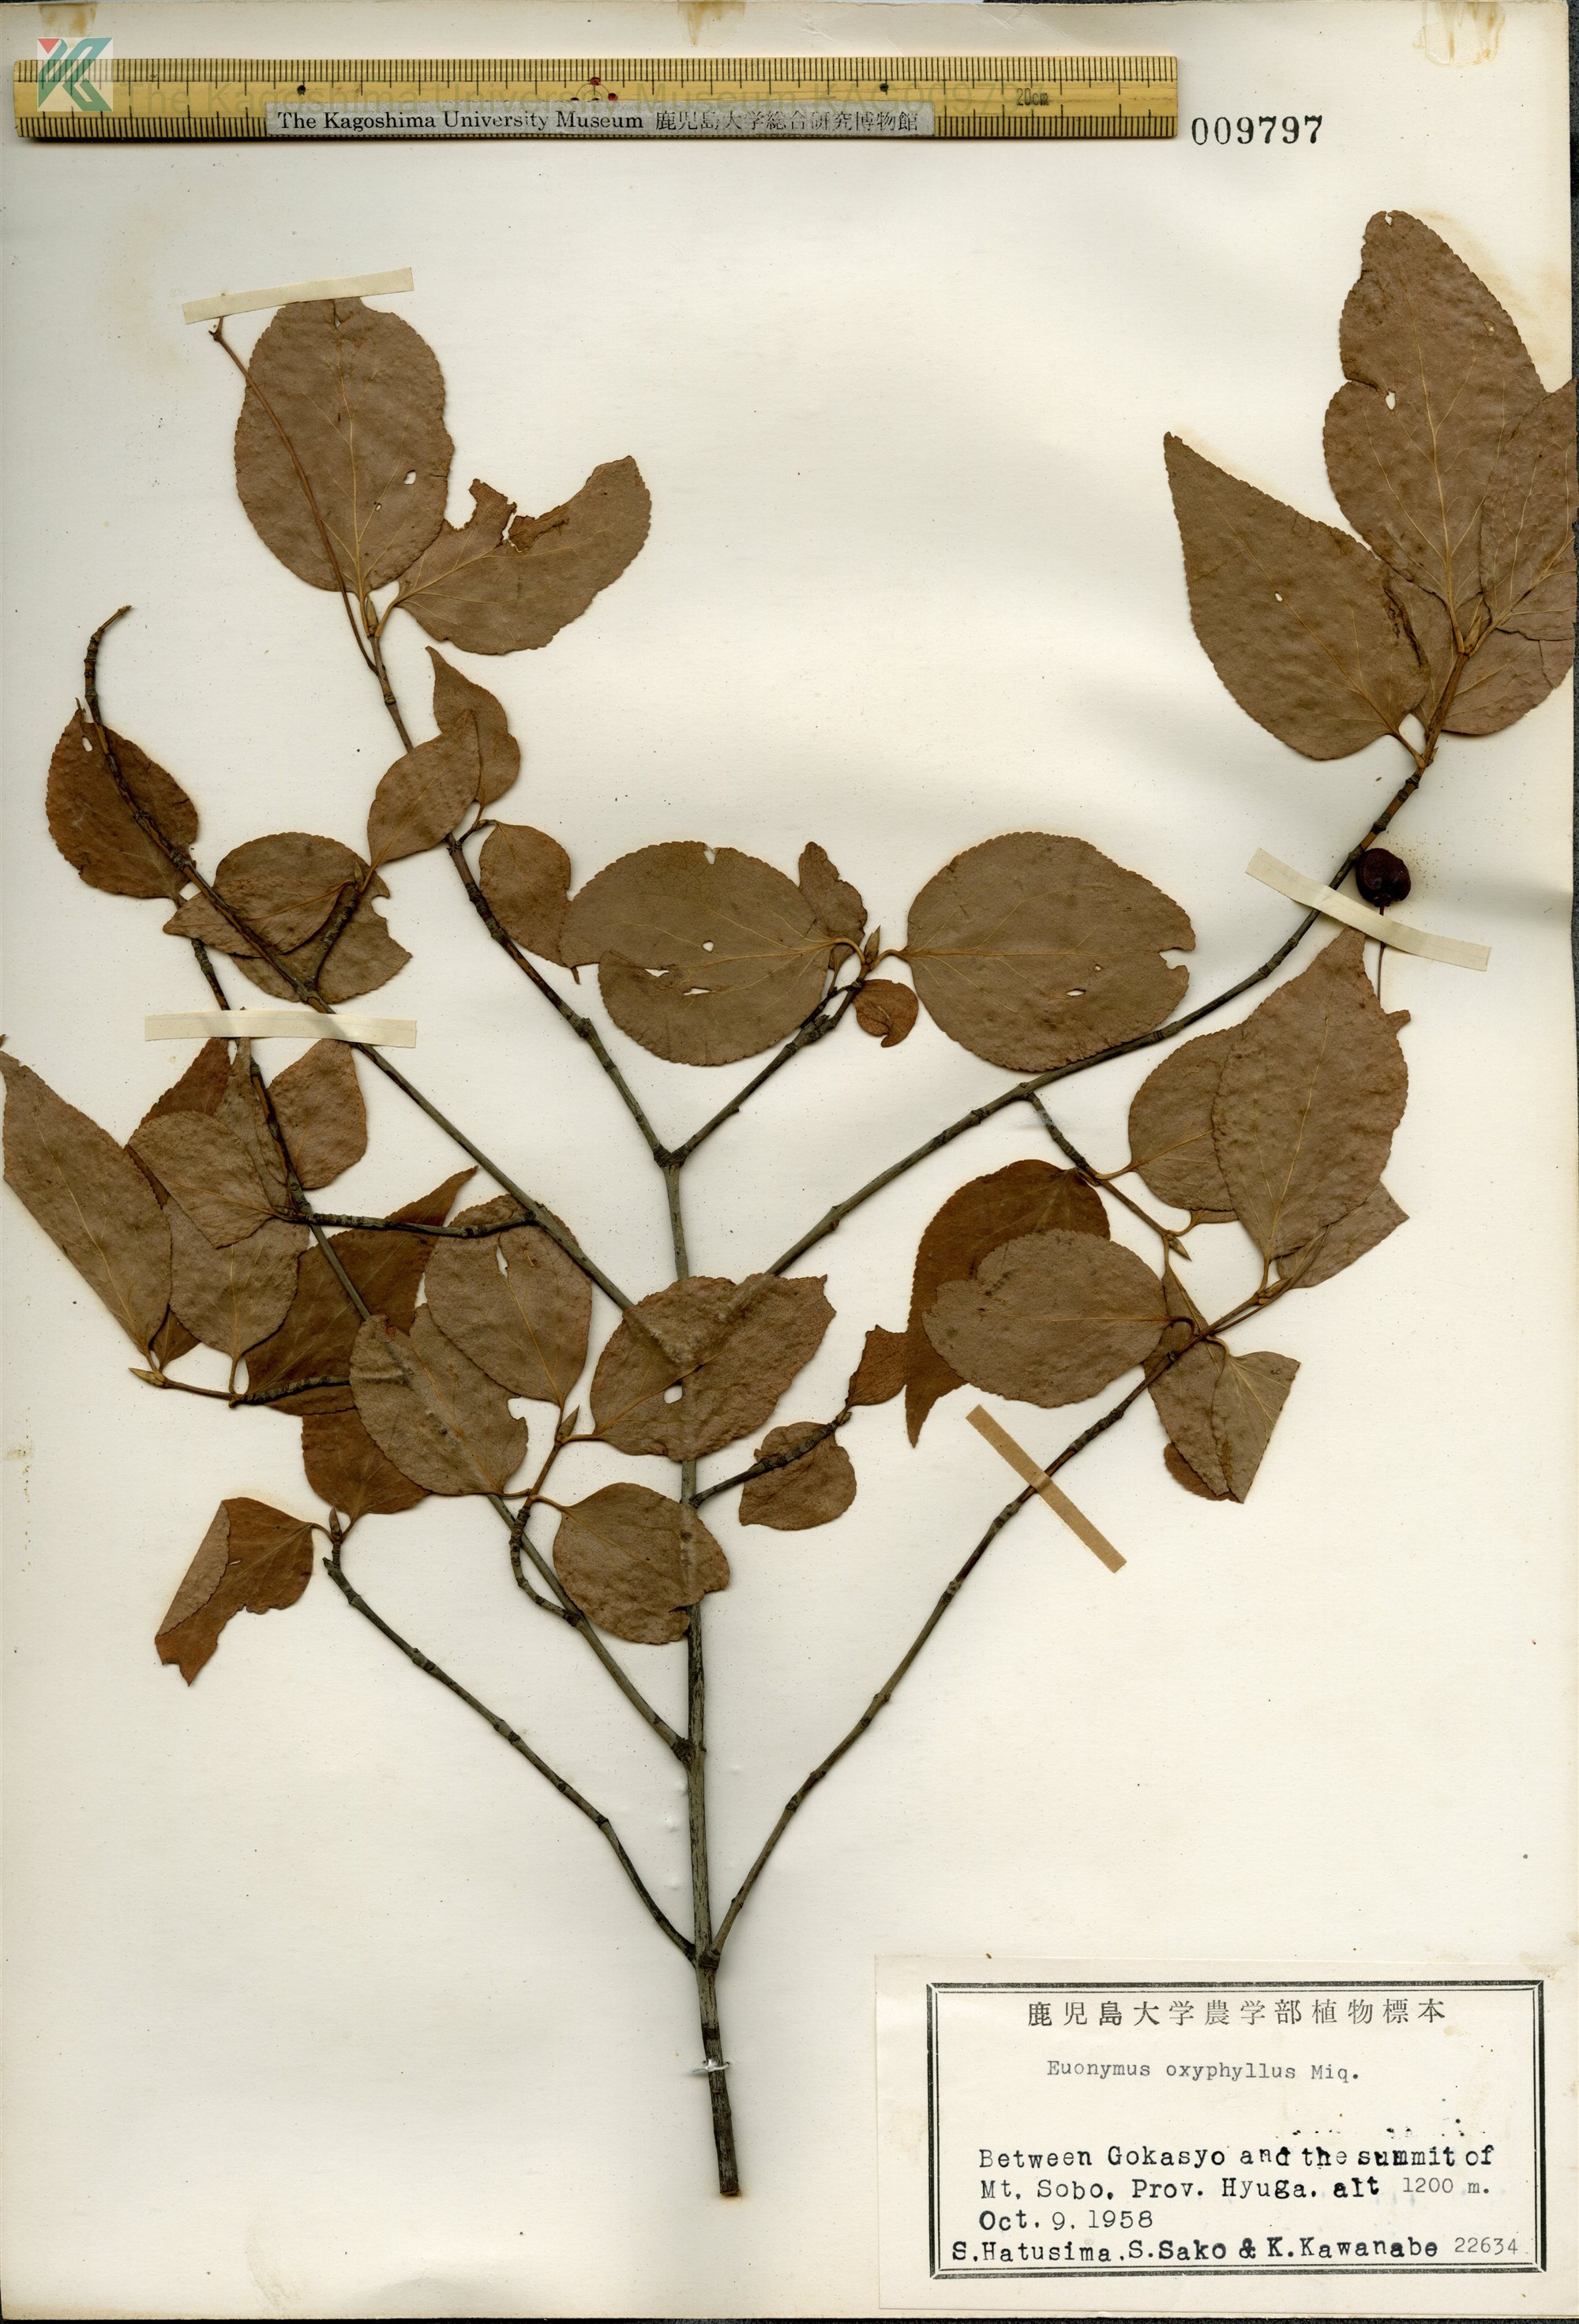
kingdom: Plantae
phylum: Tracheophyta
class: Magnoliopsida
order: Celastrales
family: Celastraceae
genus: Euonymus
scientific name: Euonymus oxyphyllus
